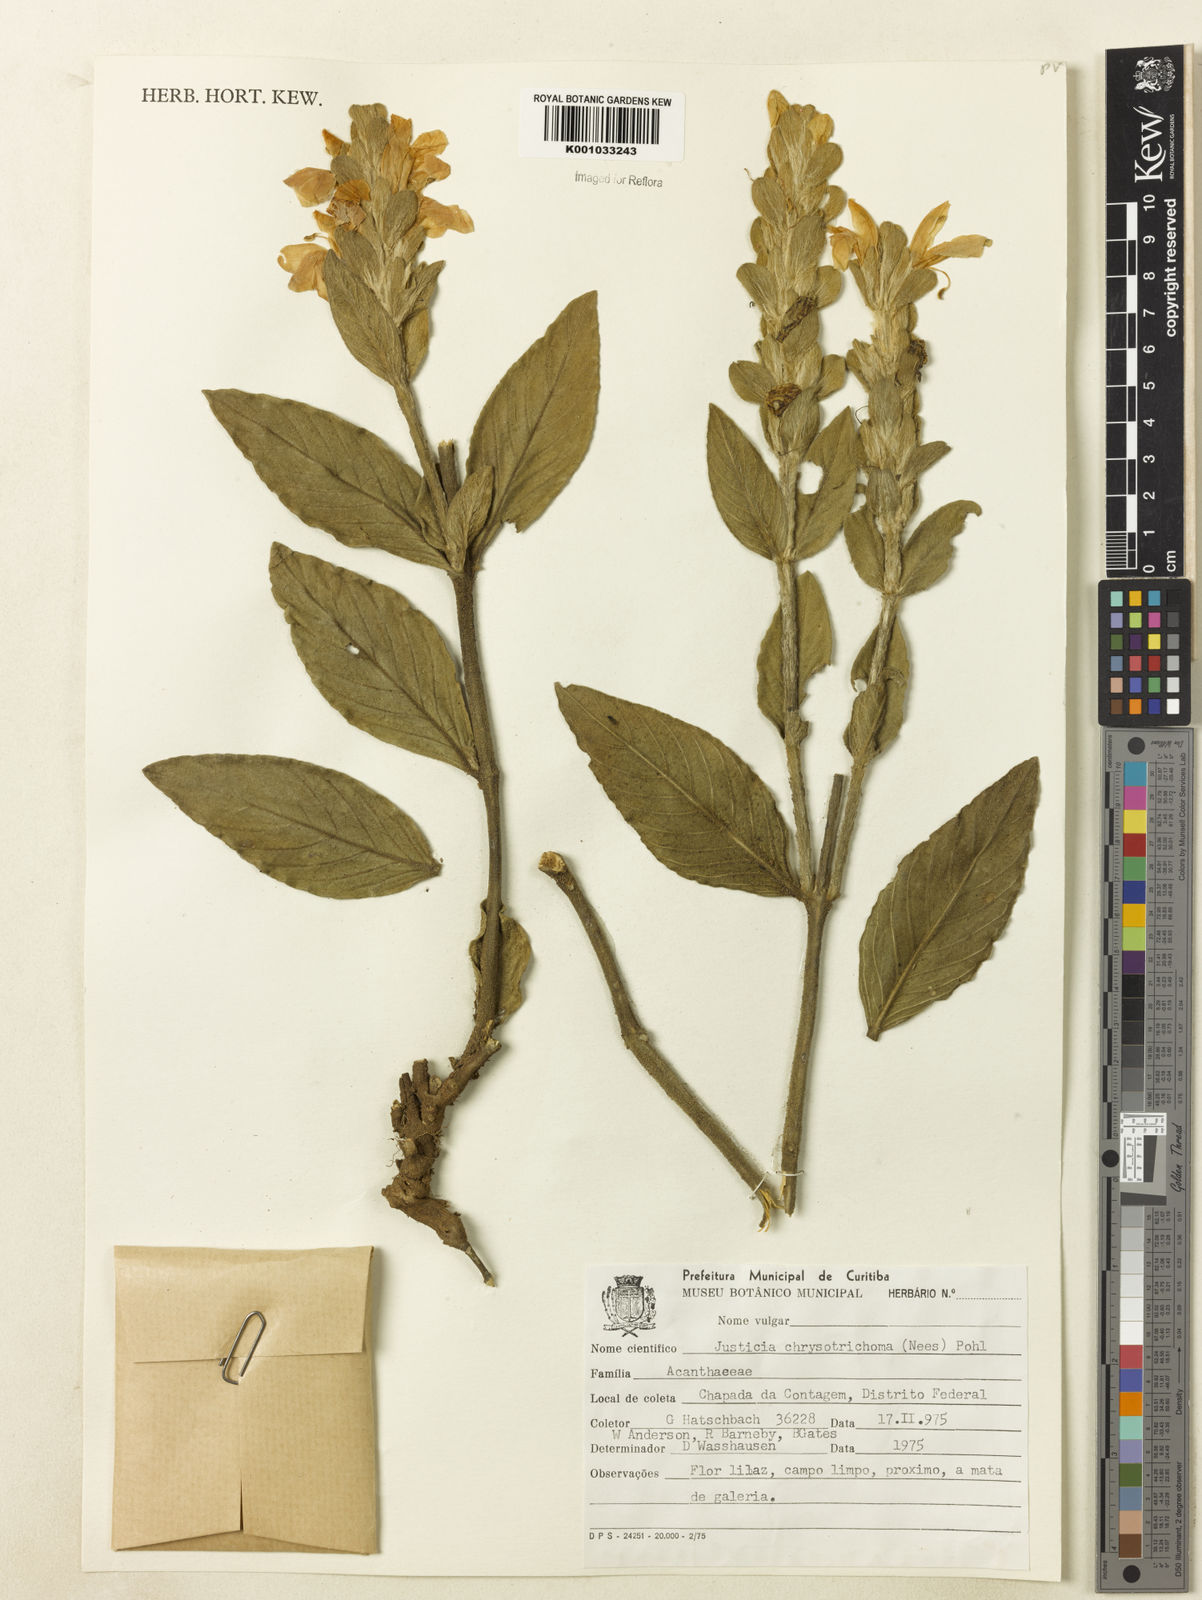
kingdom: Plantae
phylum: Tracheophyta
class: Magnoliopsida
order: Lamiales
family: Acanthaceae
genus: Justicia
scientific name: Justicia chrysotrichoma
